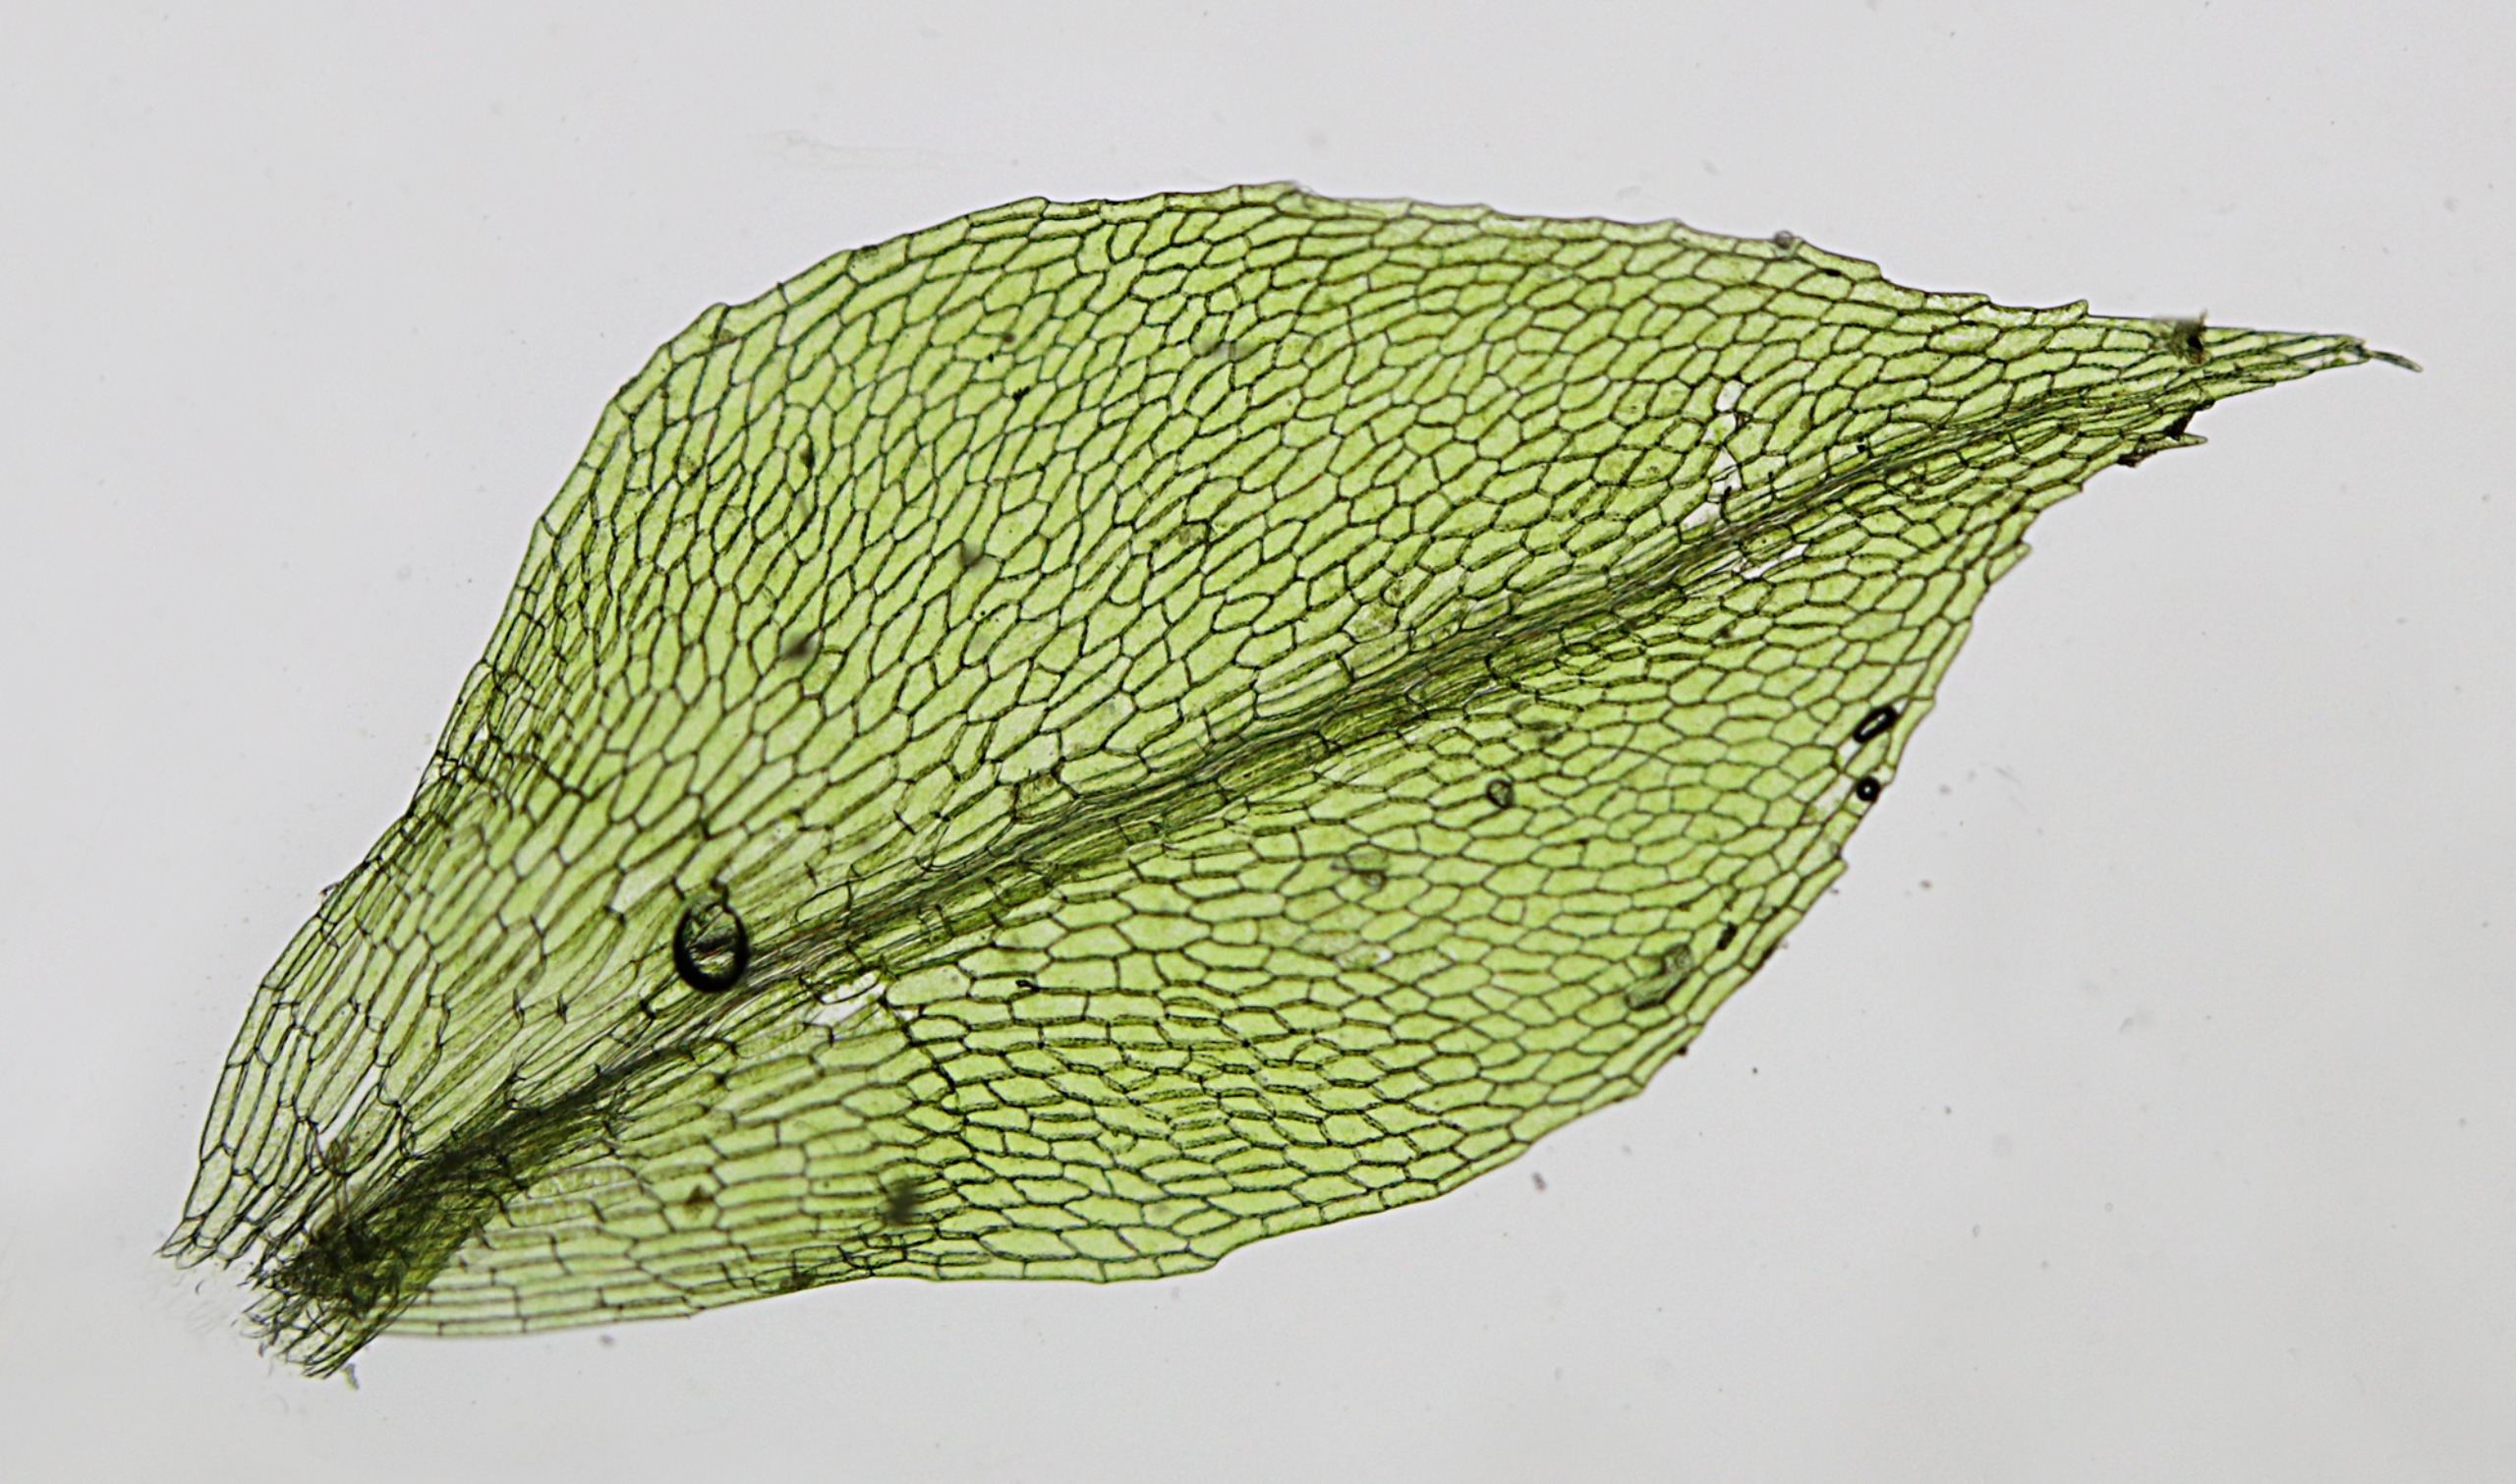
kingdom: Plantae
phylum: Bryophyta
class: Bryopsida
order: Splachnales
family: Splachnaceae
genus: Splachnum
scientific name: Splachnum ampullaceum
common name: Pære-møgmos
